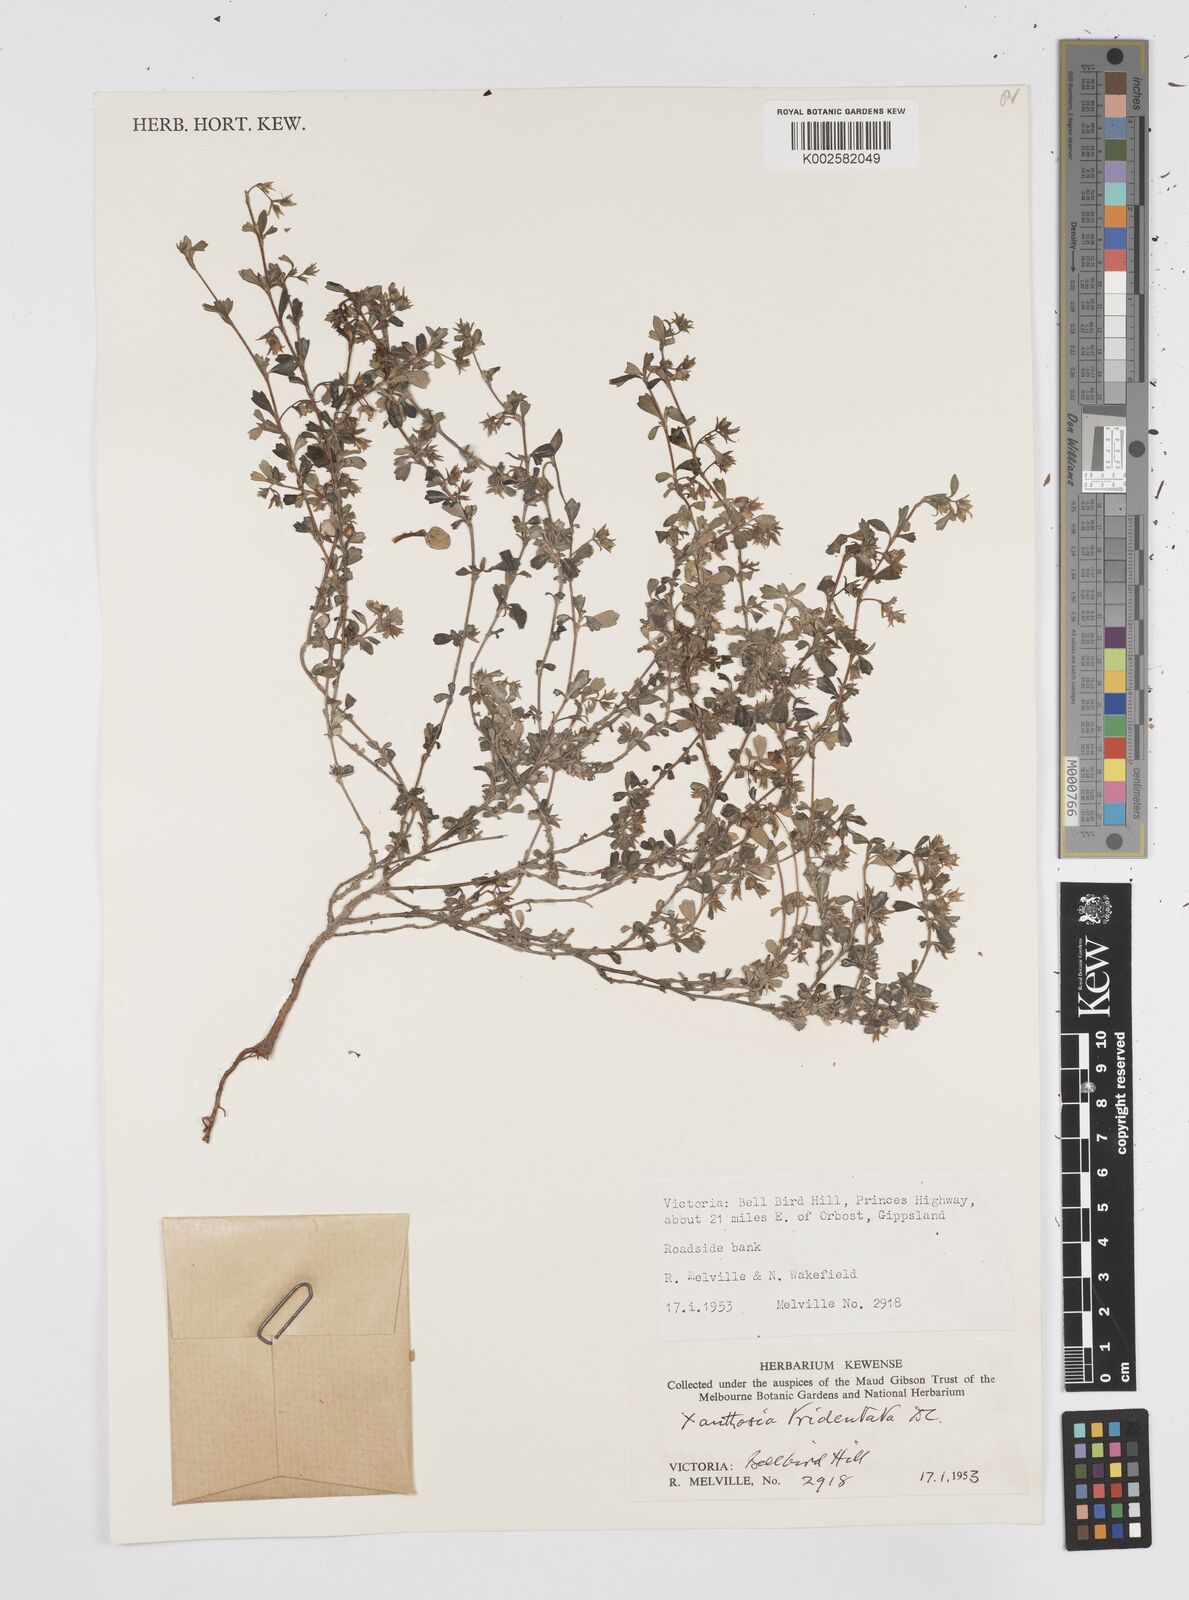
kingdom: Plantae
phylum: Tracheophyta
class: Magnoliopsida
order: Apiales
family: Apiaceae
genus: Xanthosia
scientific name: Xanthosia tridentata
